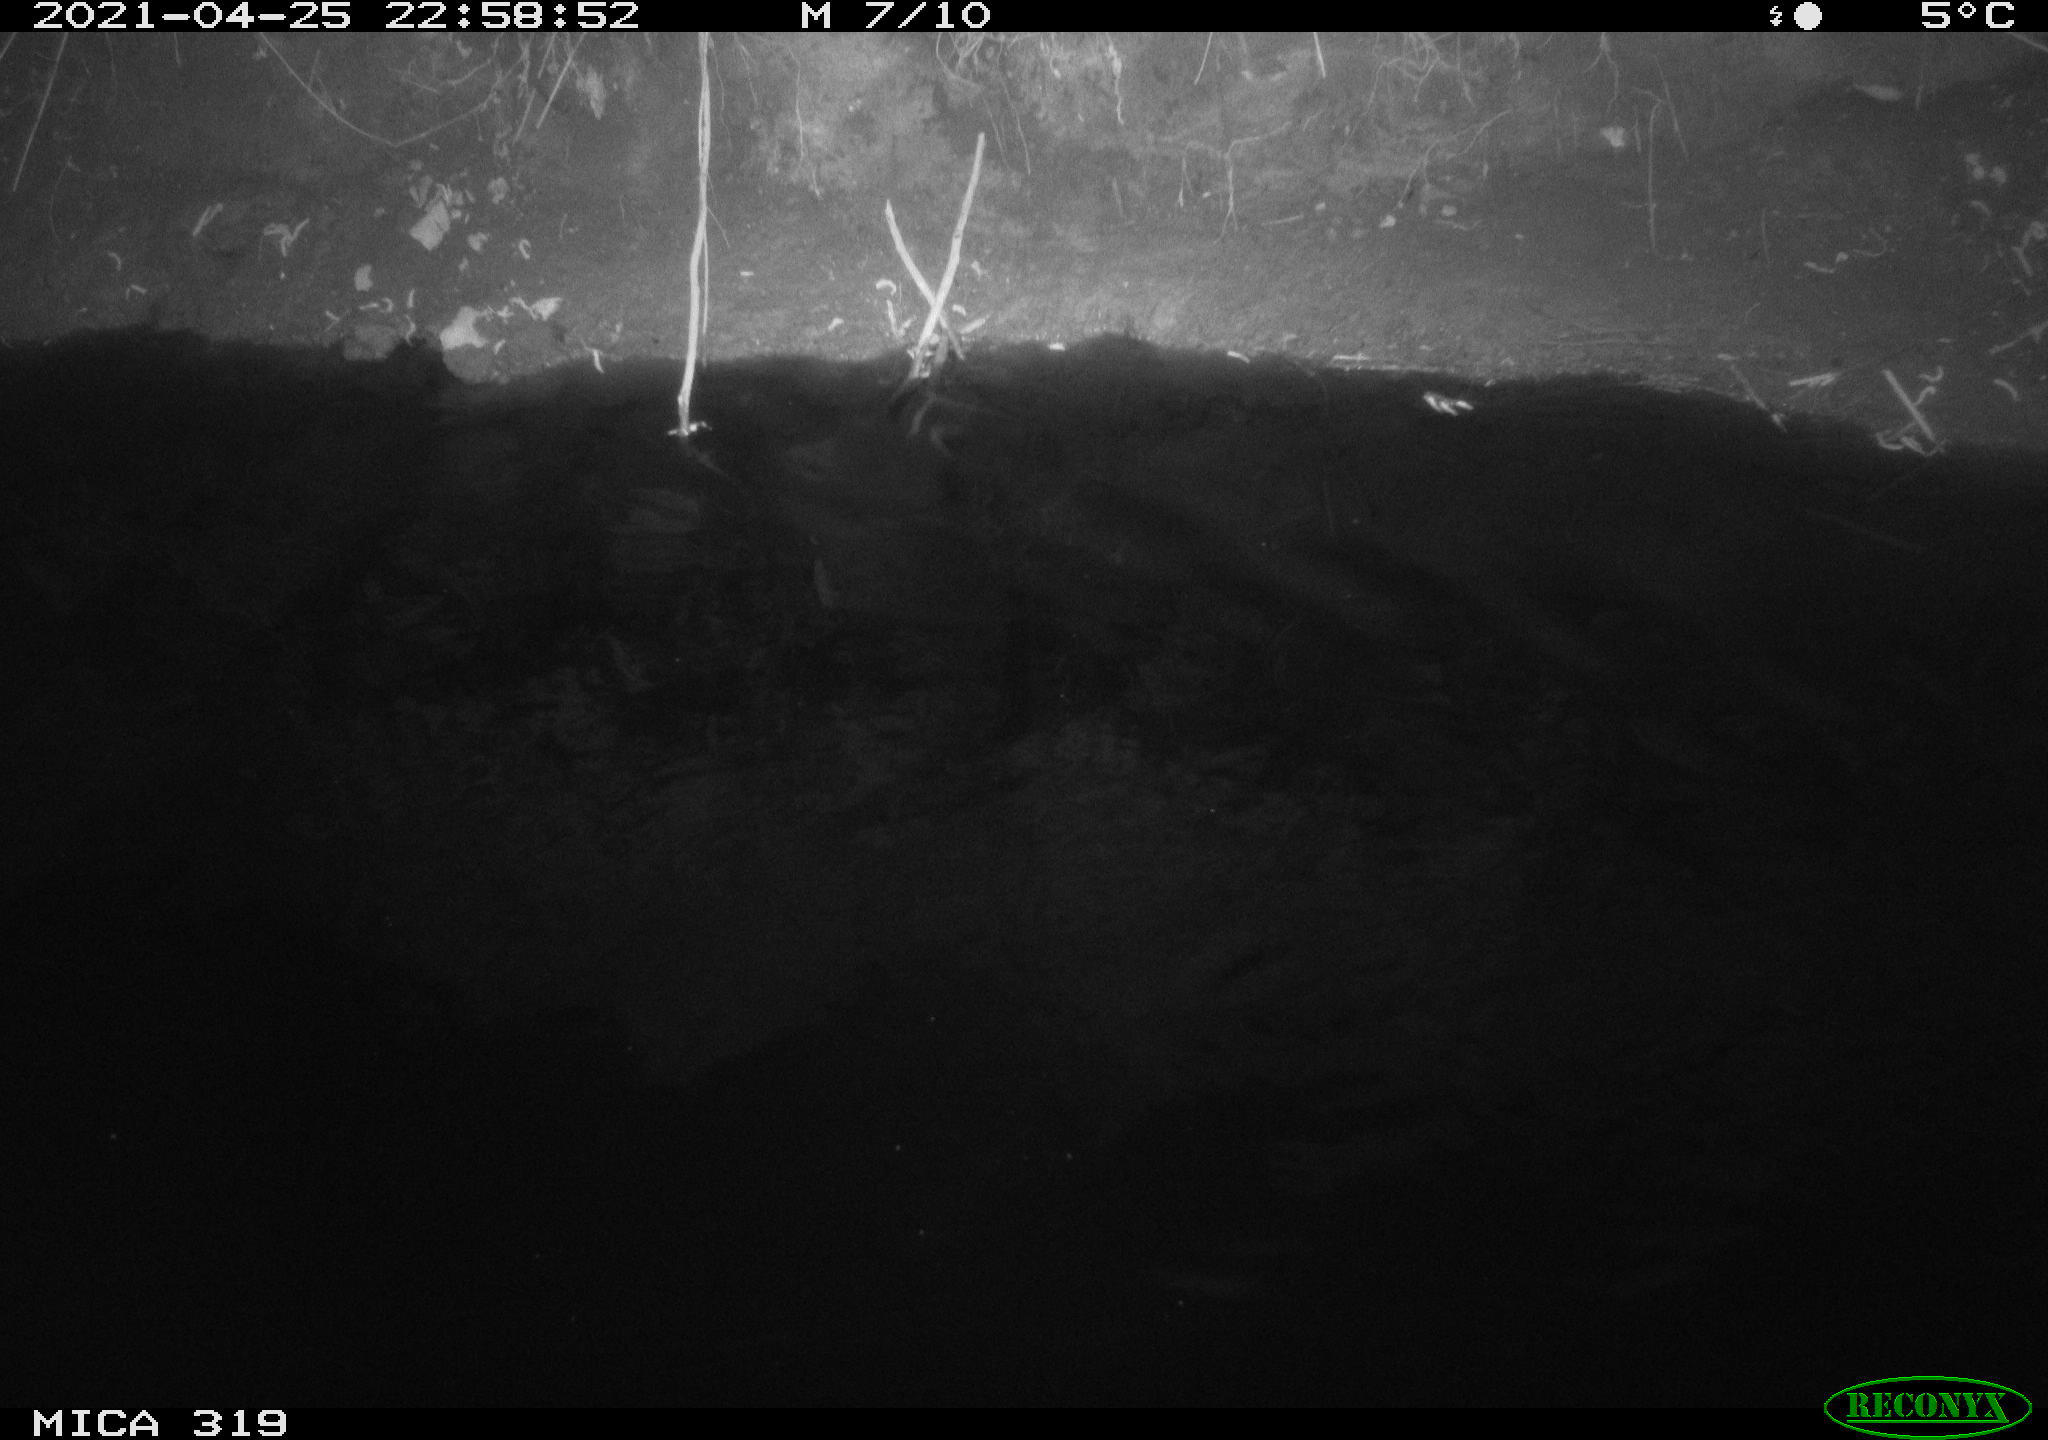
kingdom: Animalia
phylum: Chordata
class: Aves
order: Anseriformes
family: Anatidae
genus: Anas
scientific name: Anas platyrhynchos
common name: Mallard
